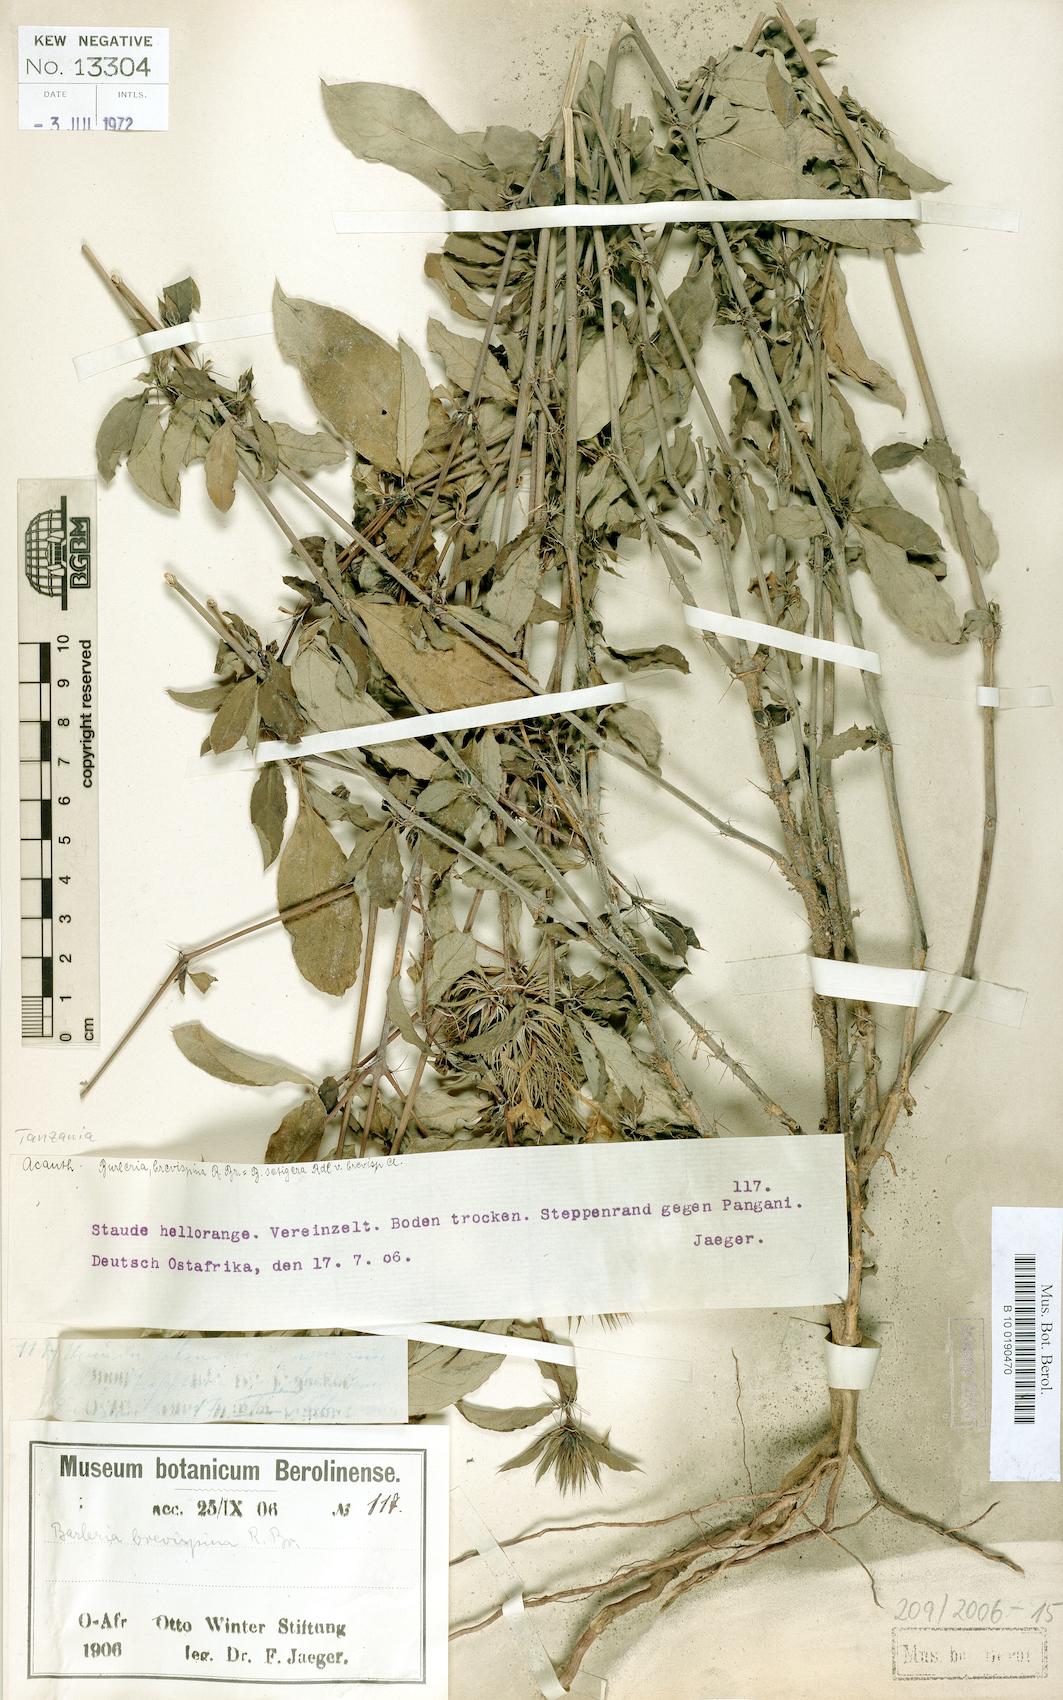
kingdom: Plantae
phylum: Tracheophyta
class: Magnoliopsida
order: Lamiales
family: Acanthaceae
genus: Barleria
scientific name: Barleria polhillii
